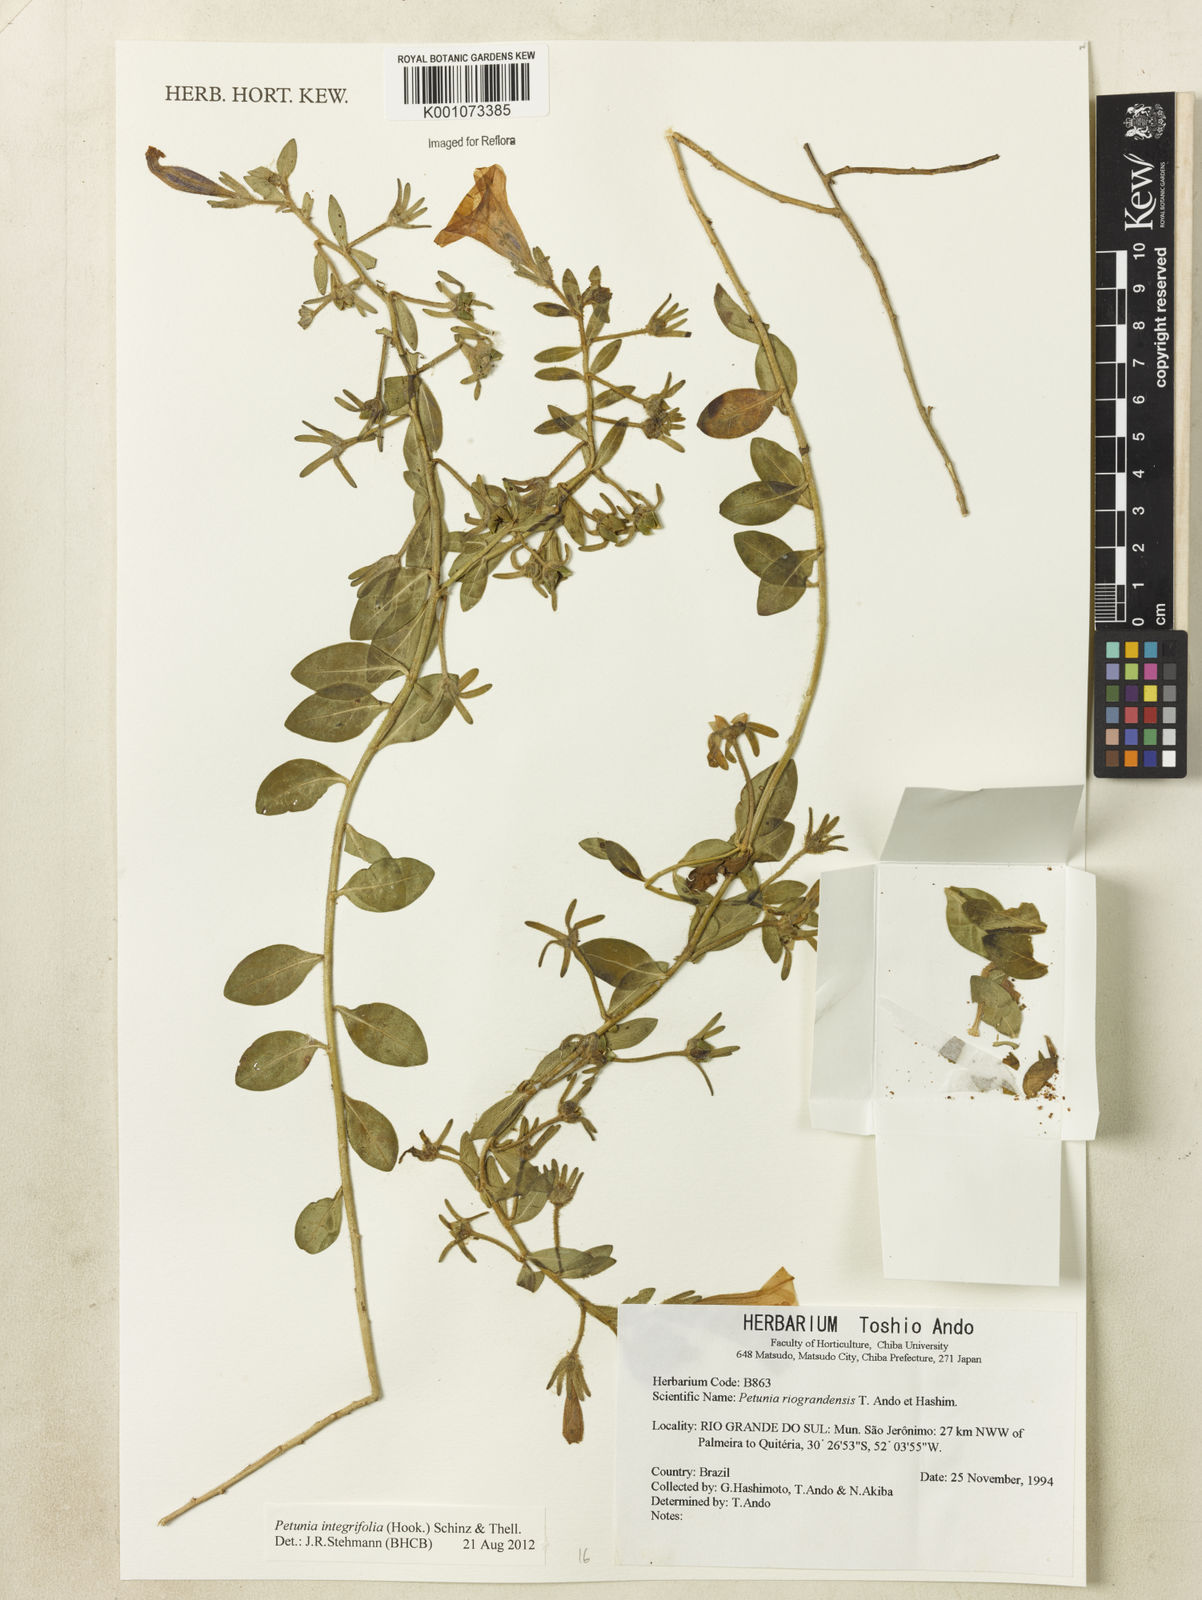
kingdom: Plantae
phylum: Tracheophyta
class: Magnoliopsida
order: Solanales
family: Solanaceae
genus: Petunia
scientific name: Petunia integrifolia
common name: Violet-flower petunia
